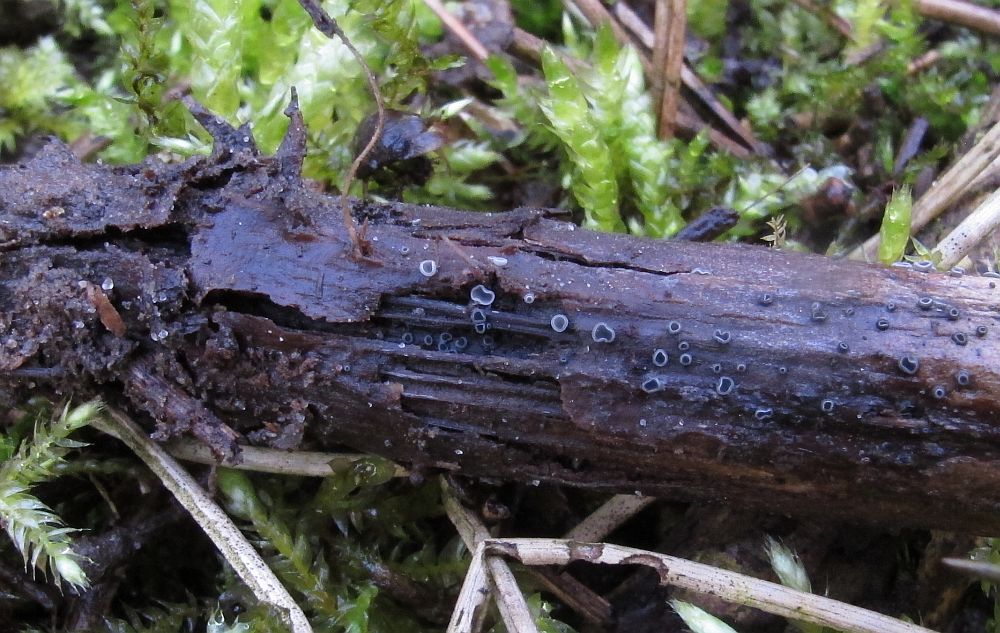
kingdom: Fungi
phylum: Ascomycota
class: Leotiomycetes
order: Helotiales
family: Ploettnerulaceae
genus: Pyrenopeziza
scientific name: Pyrenopeziza arctii
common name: burre-kerneskive
